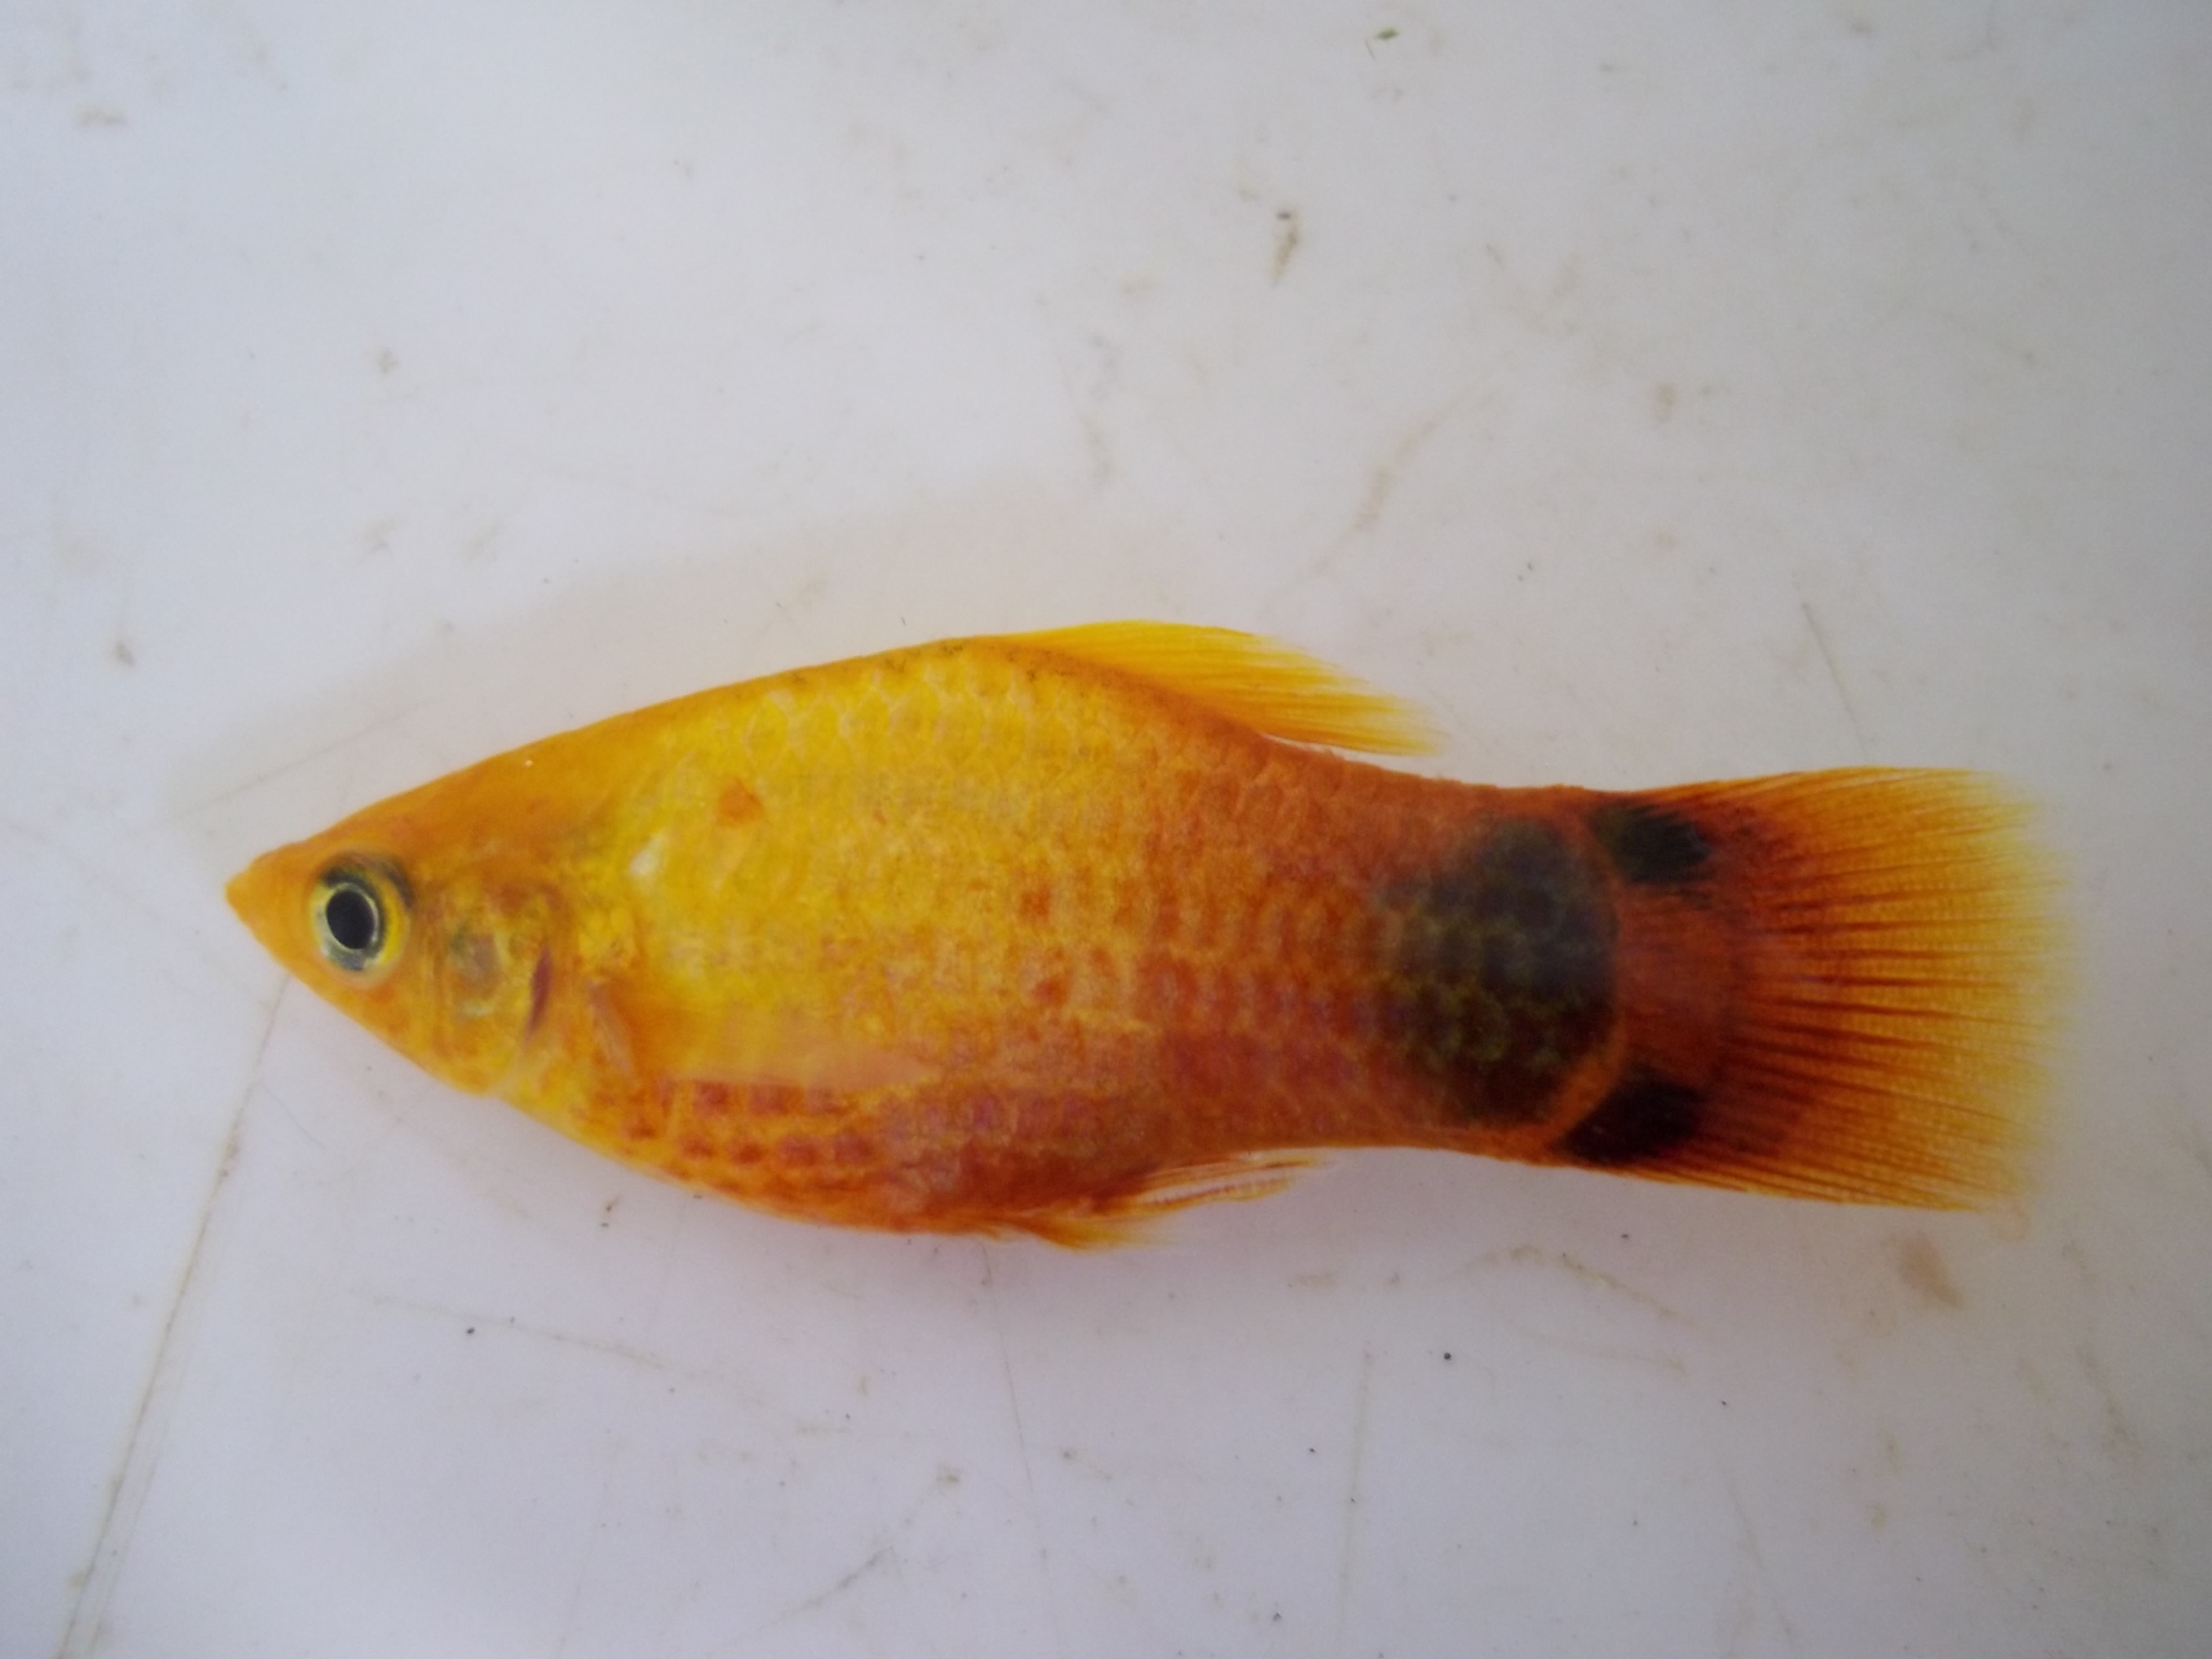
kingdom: Animalia
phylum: Chordata
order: Cyprinodontiformes
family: Poeciliidae
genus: Xiphophorus
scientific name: Xiphophorus maculatus
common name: Southern platyfish
